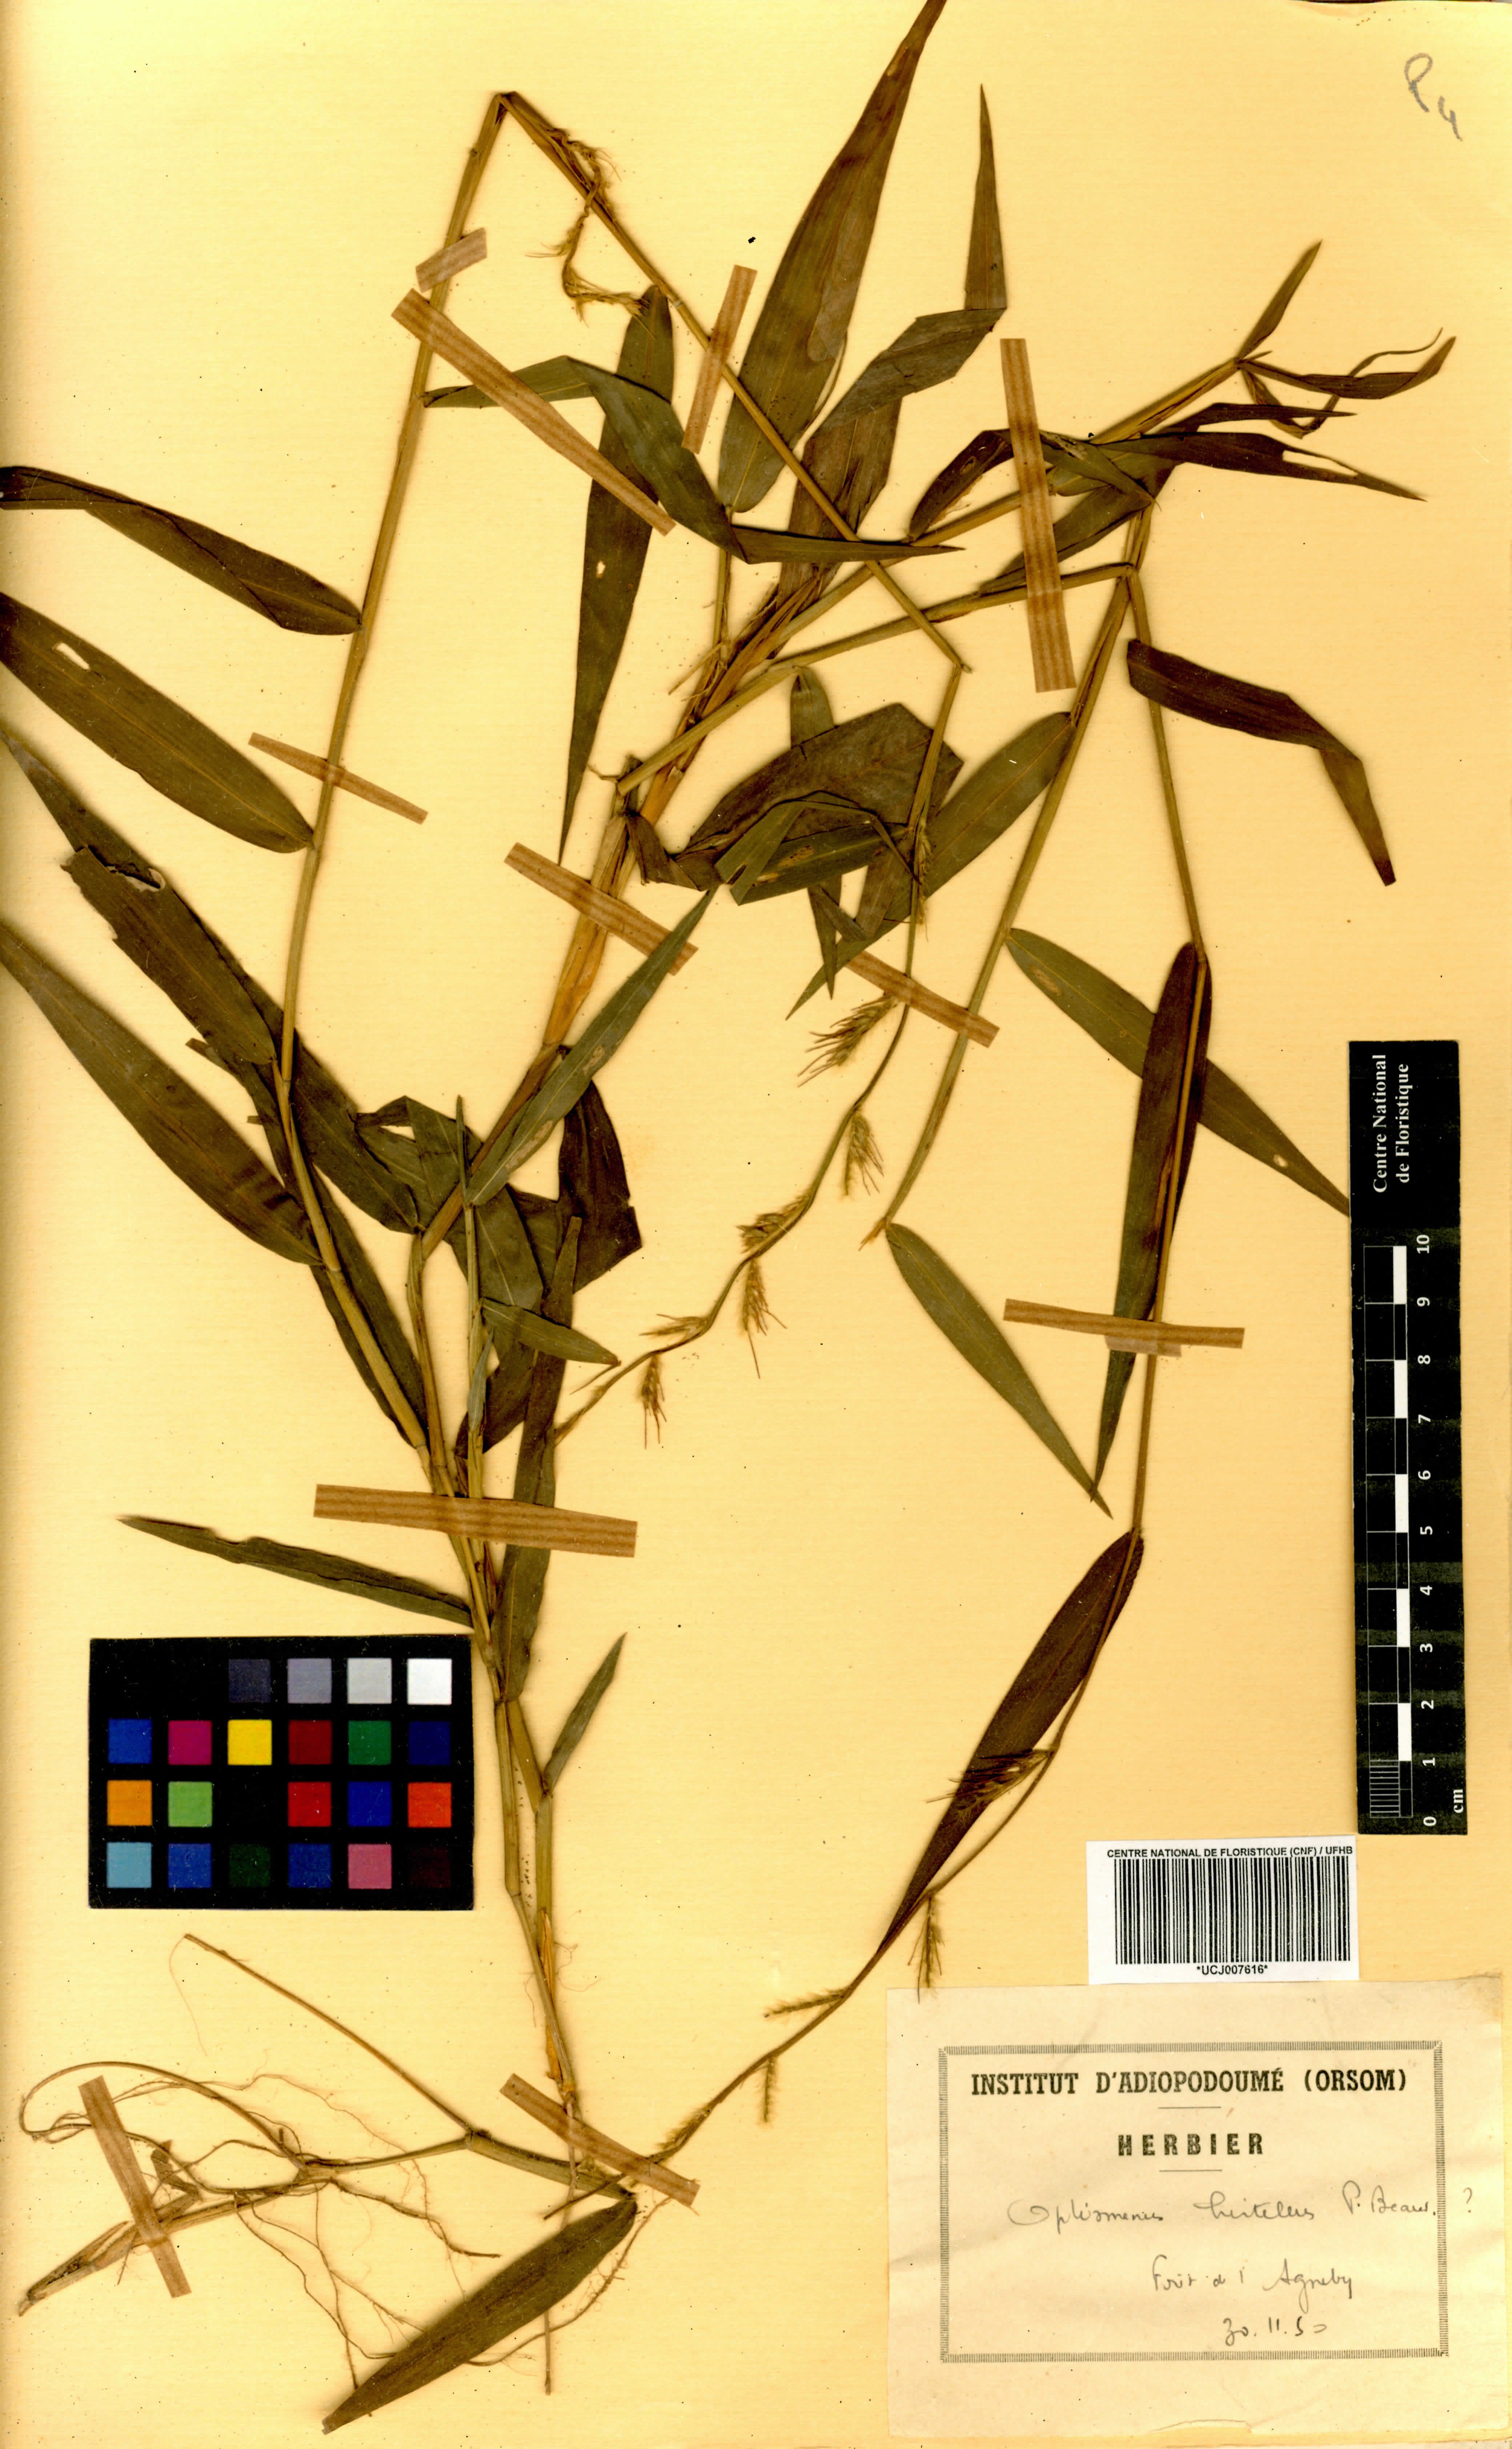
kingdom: Plantae
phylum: Tracheophyta
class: Liliopsida
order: Poales
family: Poaceae
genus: Oplismenus
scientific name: Oplismenus hirtellus
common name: Basketgrass
